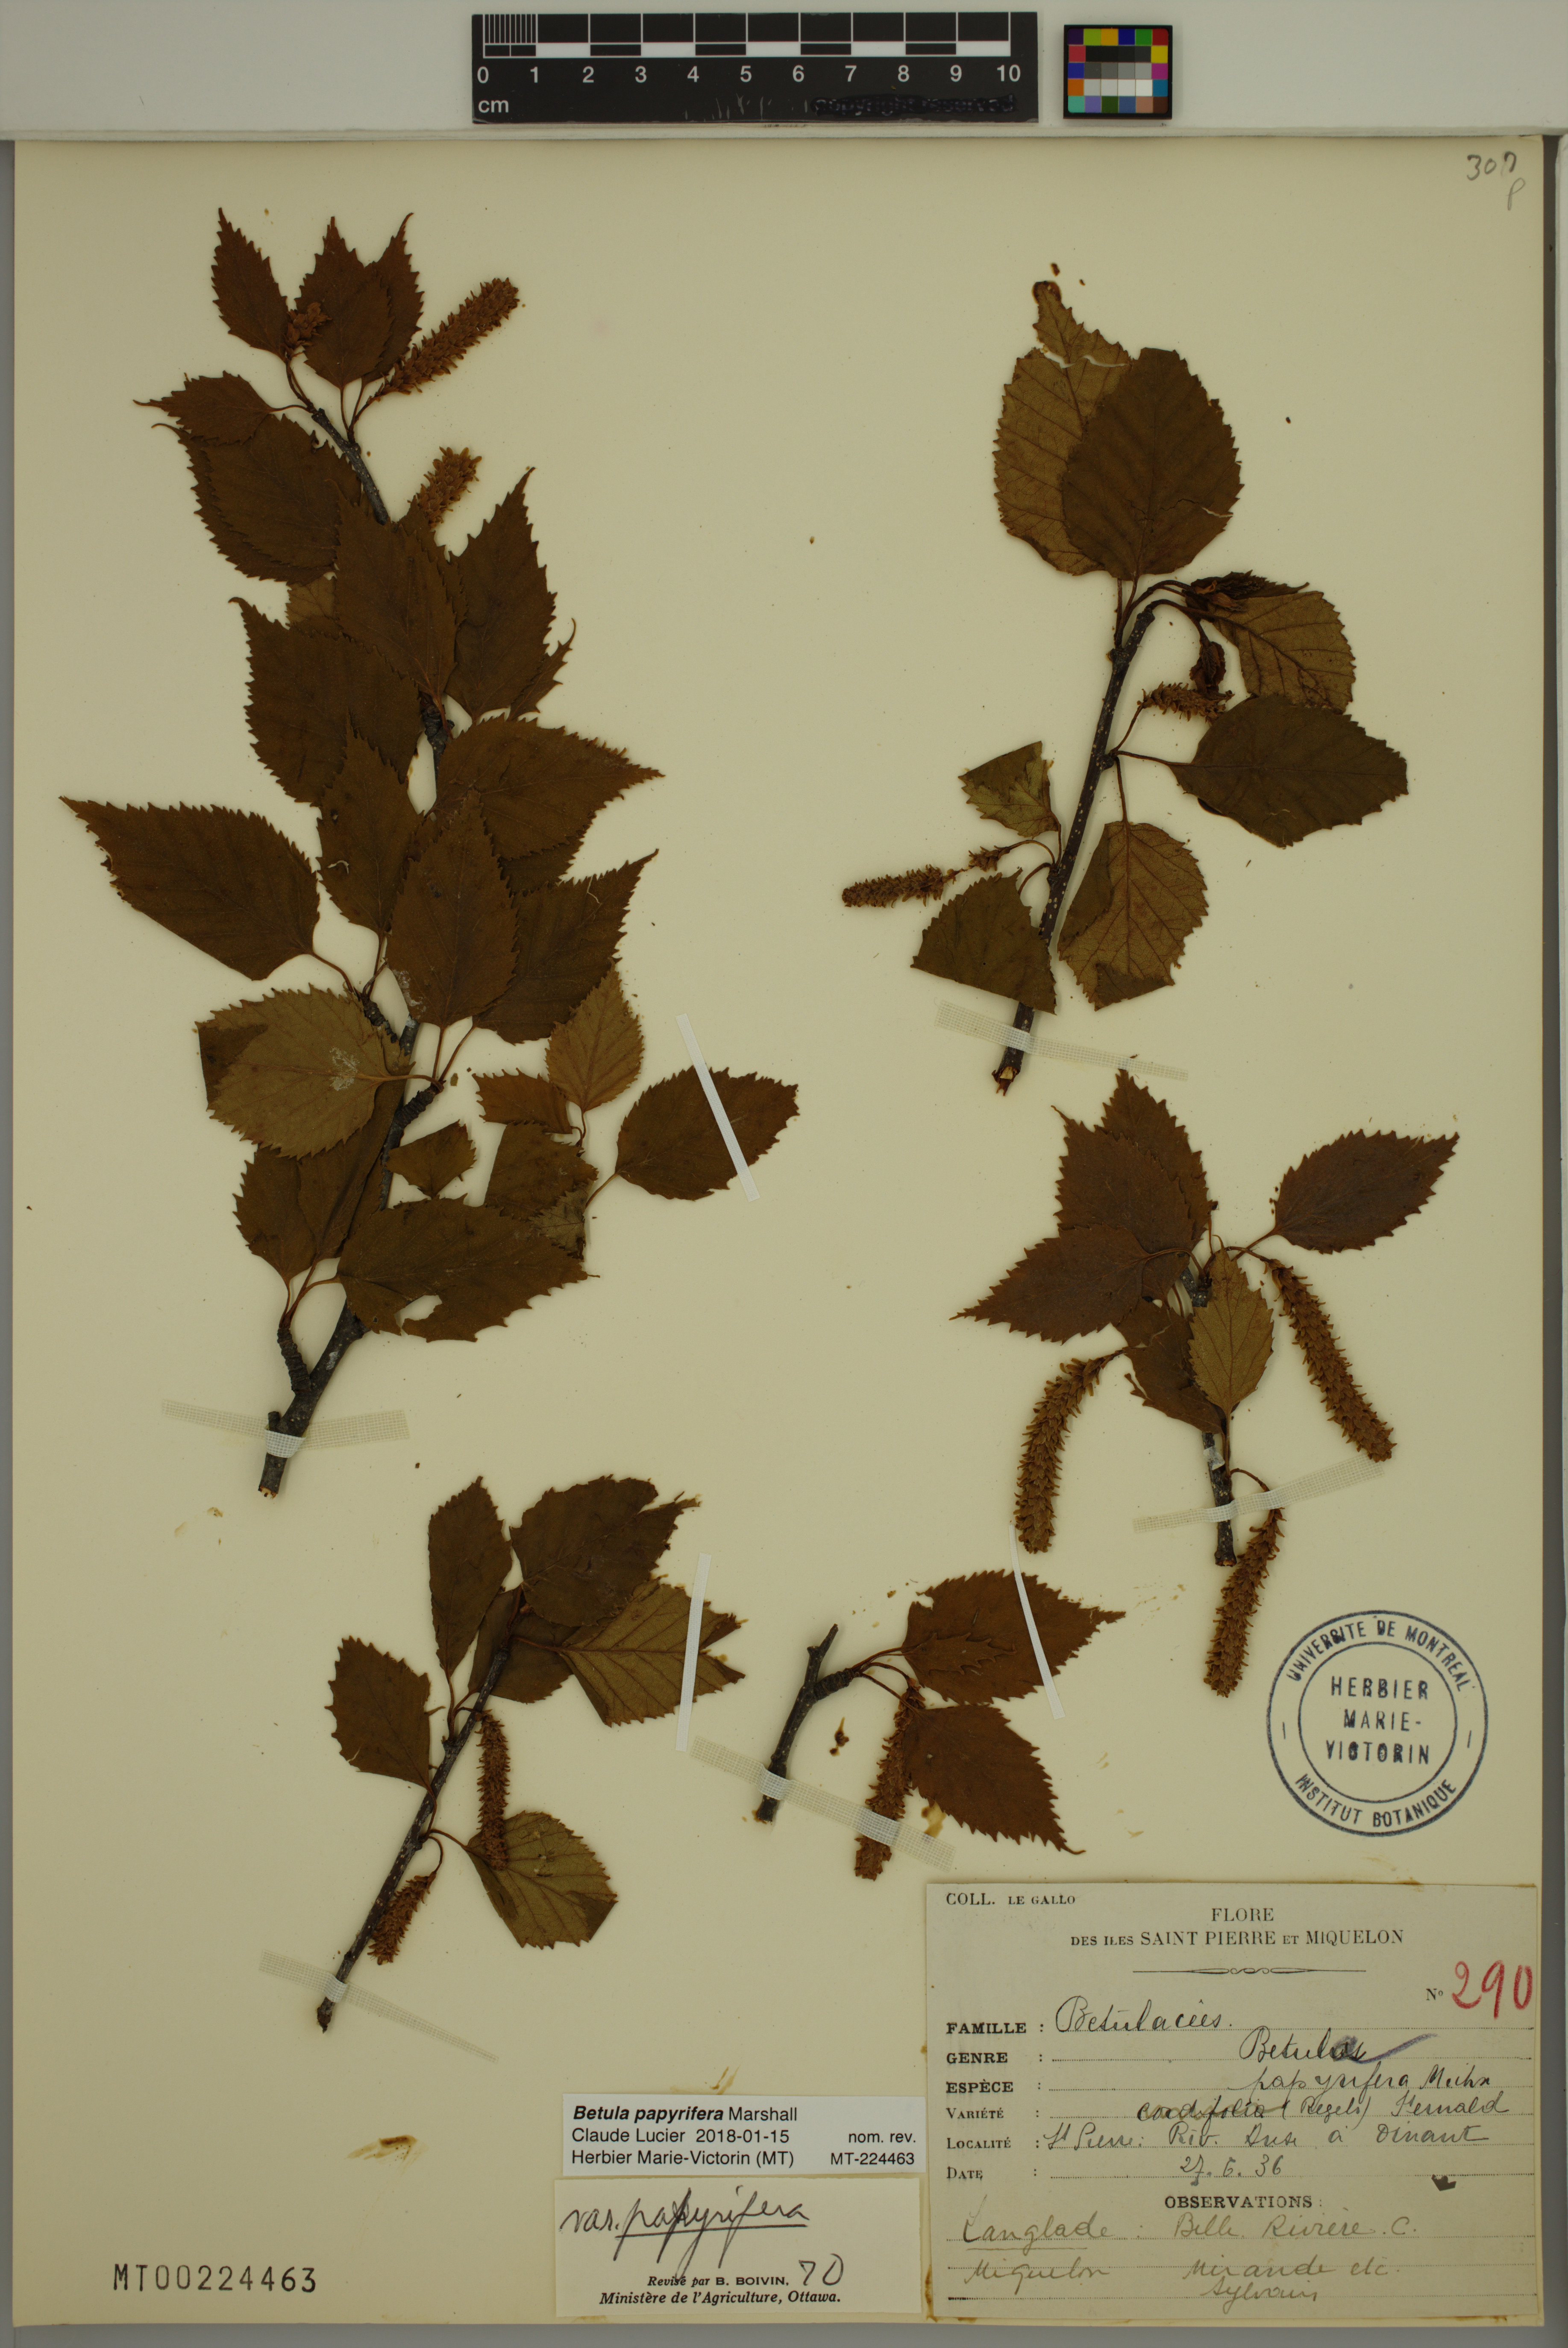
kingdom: Plantae
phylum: Tracheophyta
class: Magnoliopsida
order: Fagales
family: Betulaceae
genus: Betula
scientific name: Betula papyrifera
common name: Paper birch
